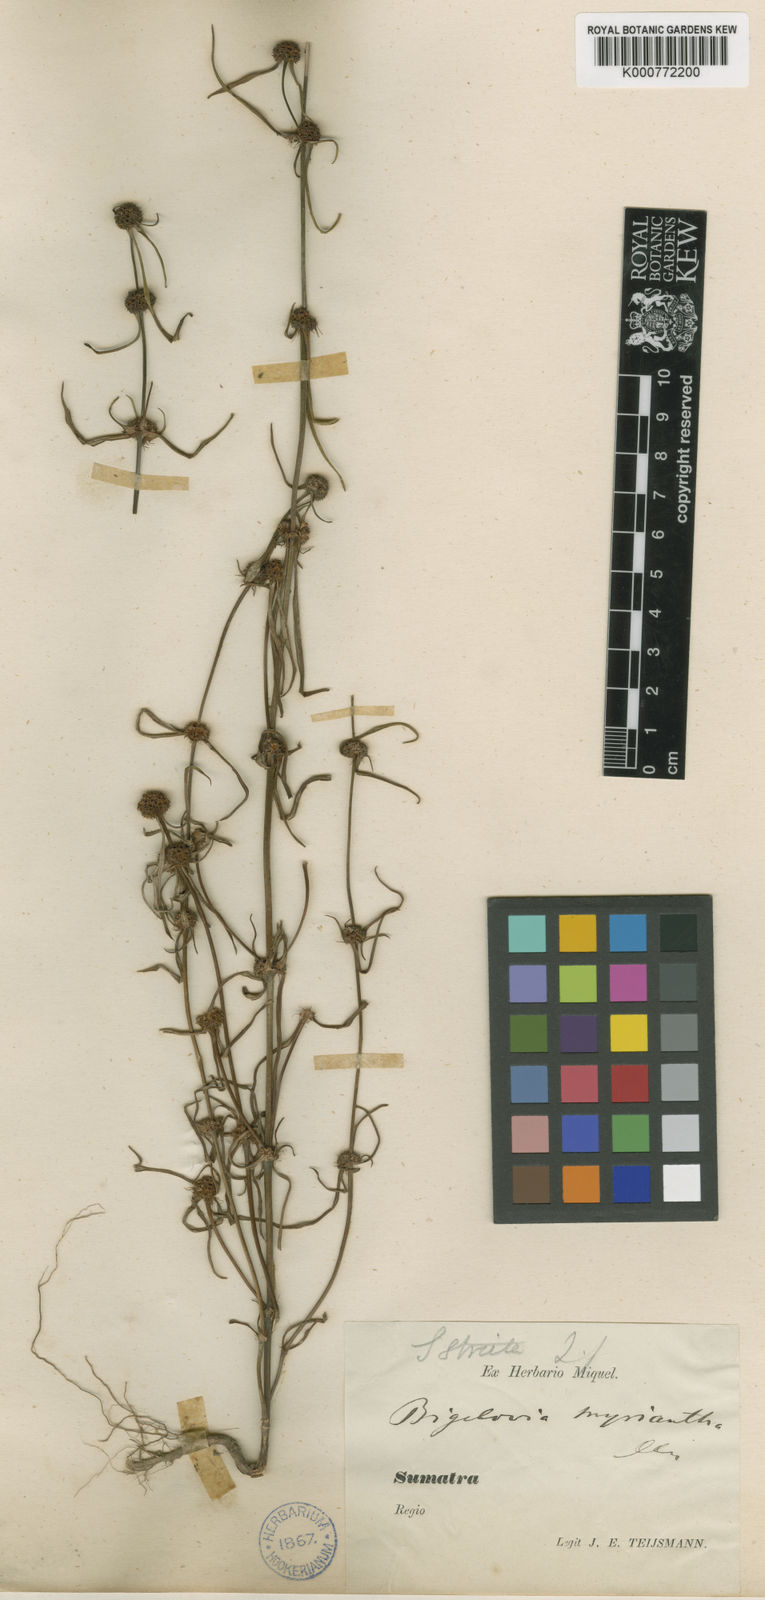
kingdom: Plantae
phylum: Tracheophyta
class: Magnoliopsida
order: Gentianales
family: Rubiaceae
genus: Spermacoce
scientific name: Spermacoce pusilla
